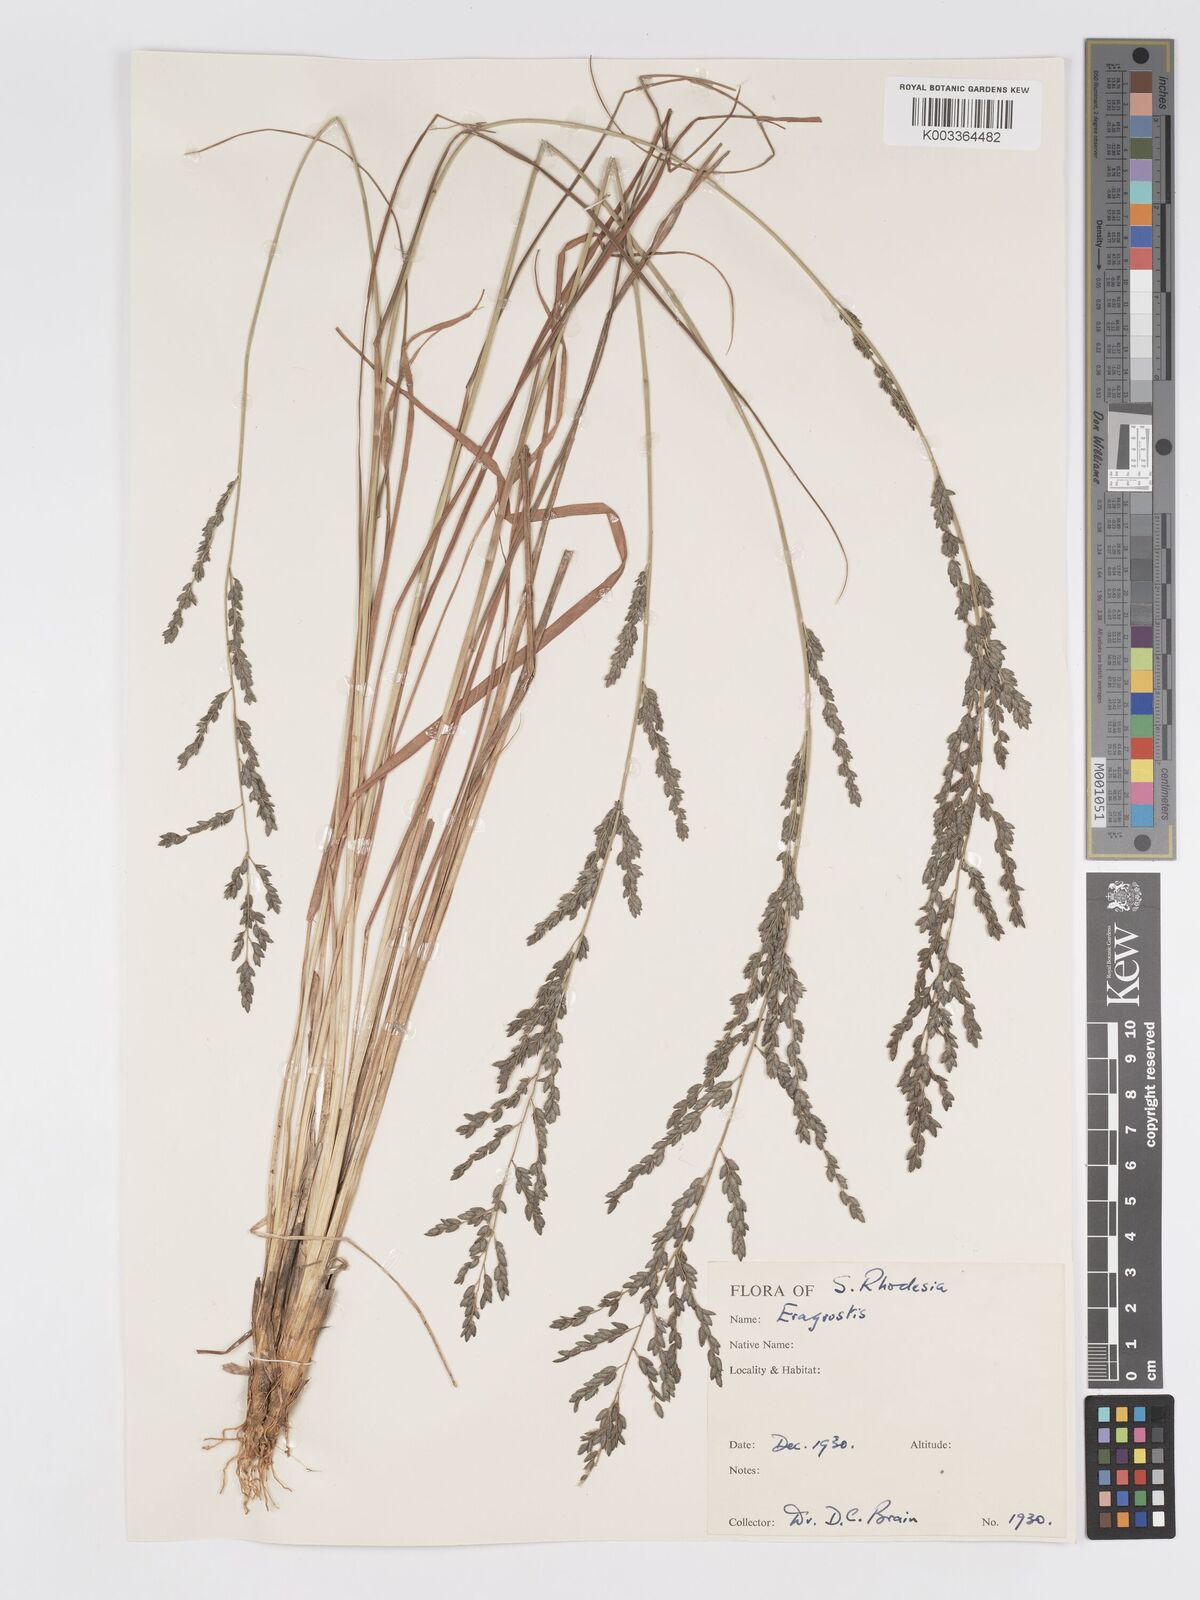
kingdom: Plantae
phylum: Tracheophyta
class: Liliopsida
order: Poales
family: Poaceae
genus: Eragrostis
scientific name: Eragrostis sclerantha
